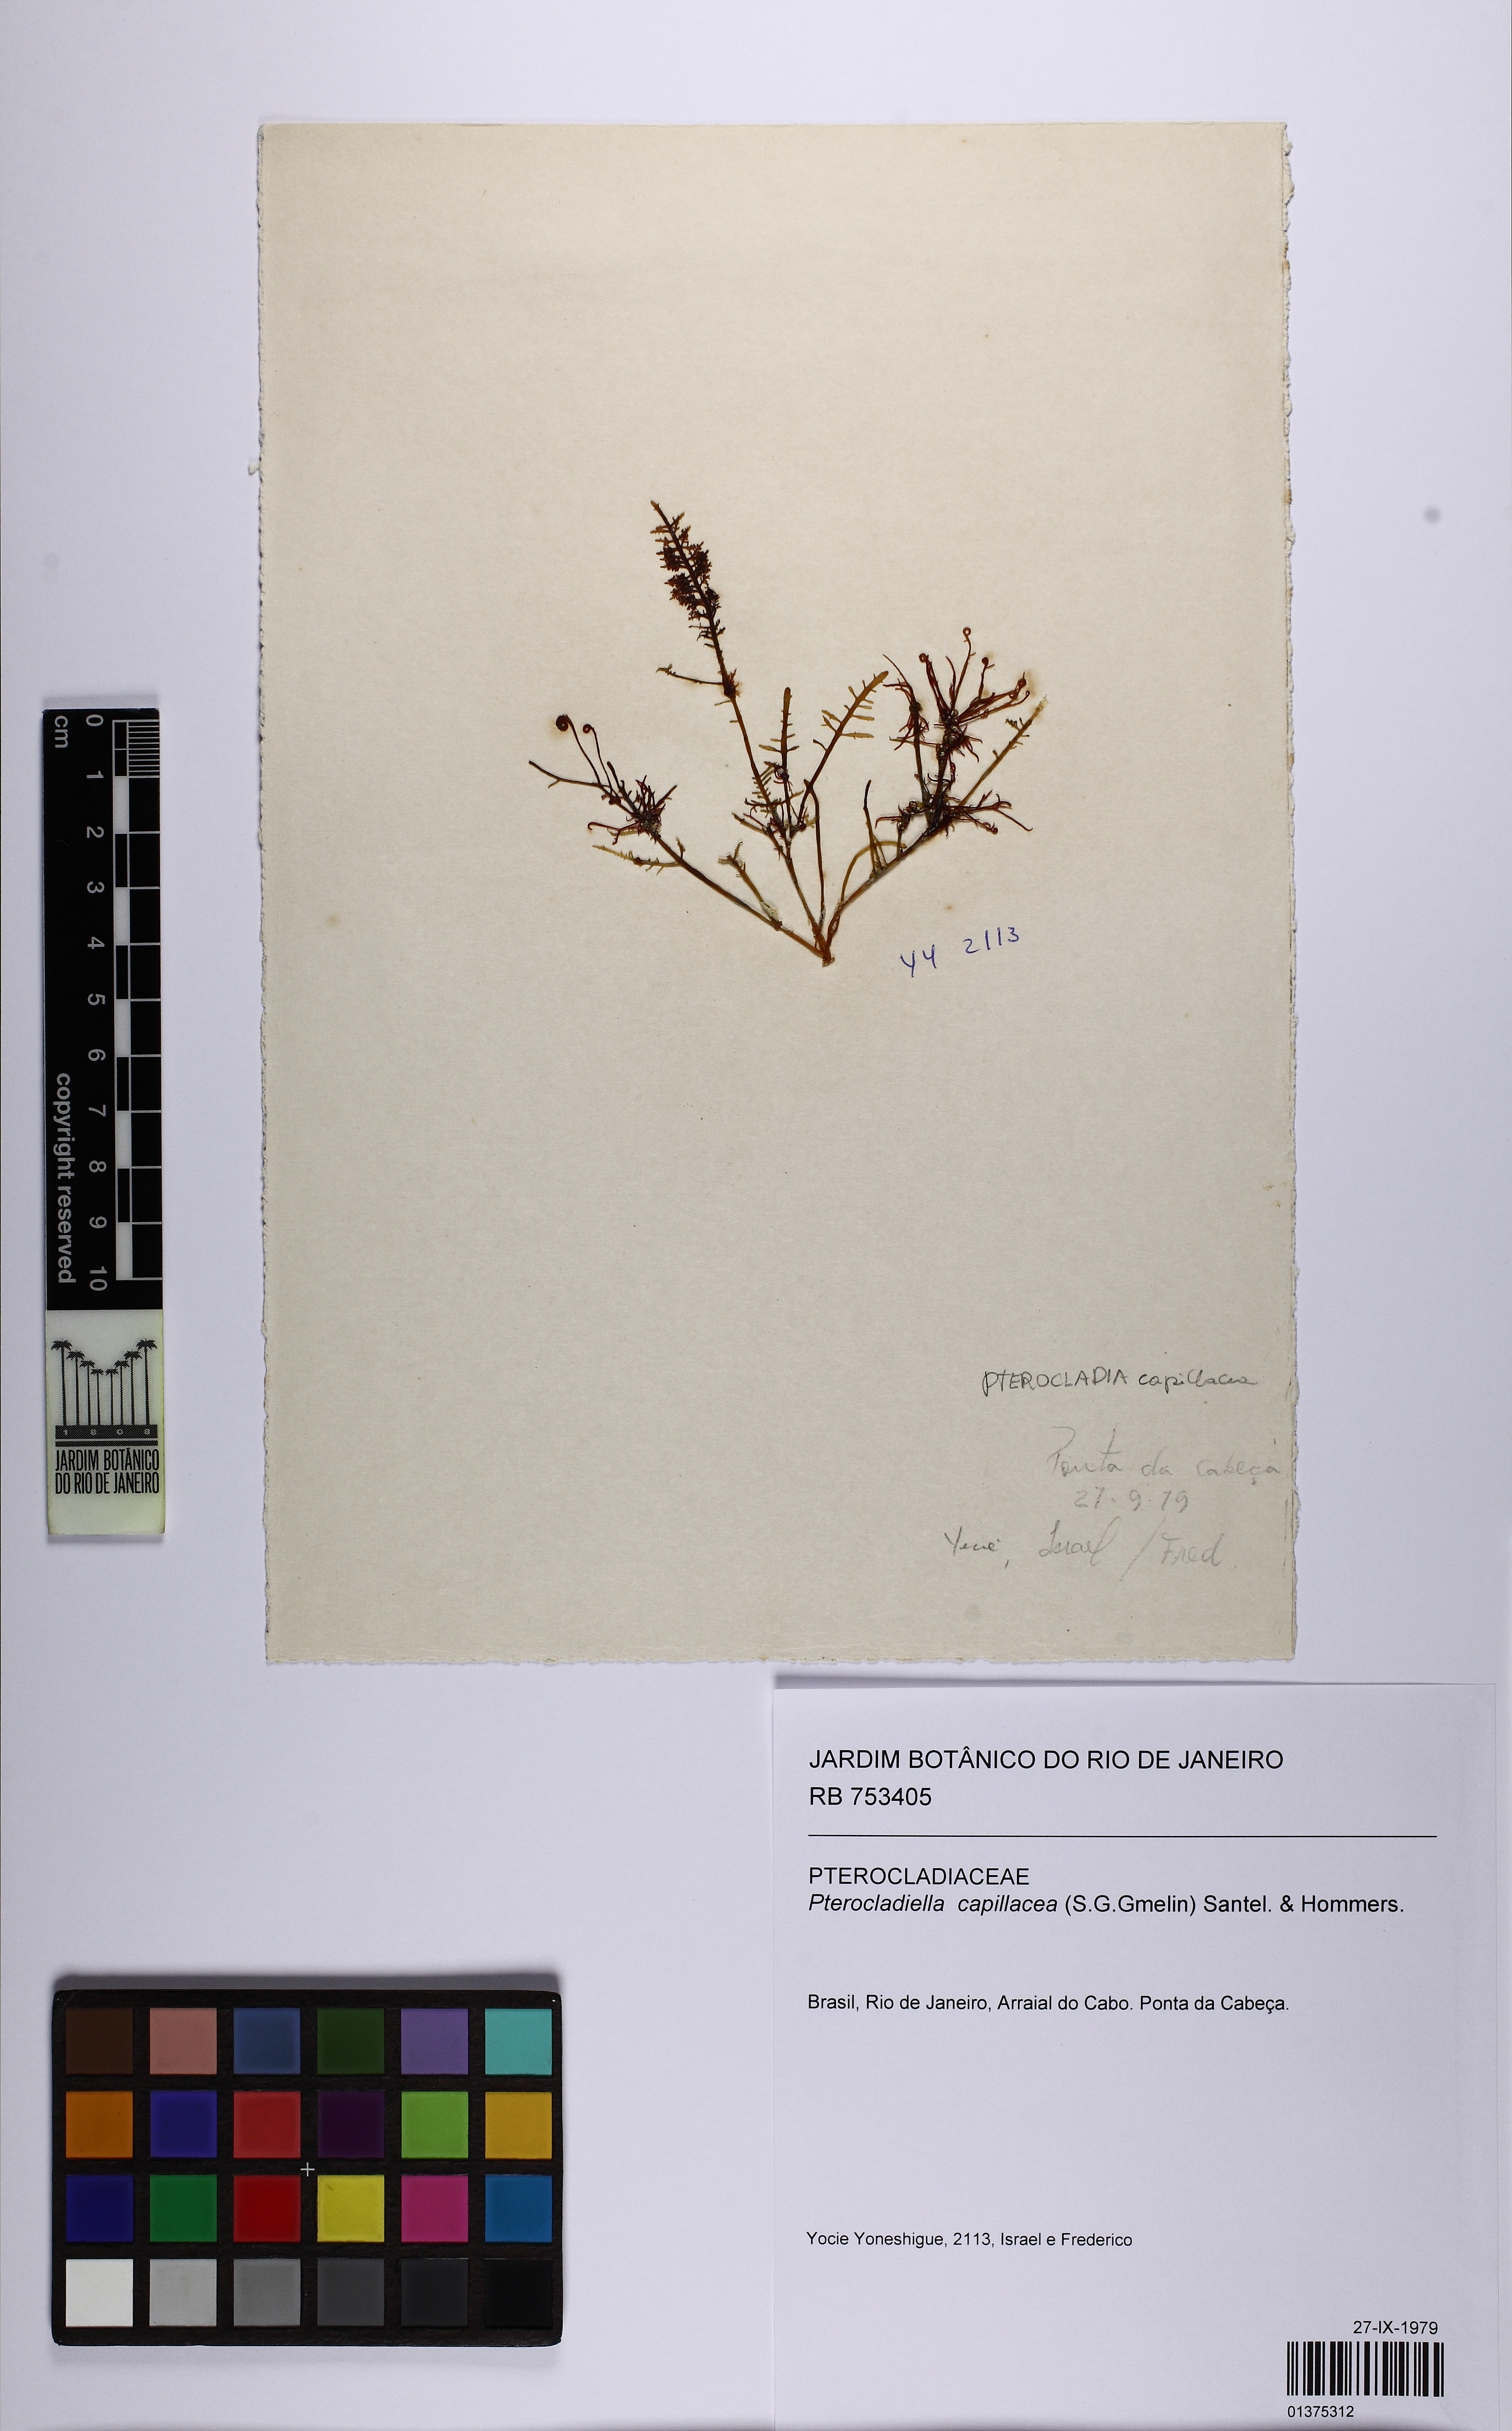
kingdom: Plantae
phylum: Rhodophyta
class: Florideophyceae
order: Gelidiales
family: Pterocladiaceae
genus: Pterocladiella
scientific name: Pterocladiella capillacea
